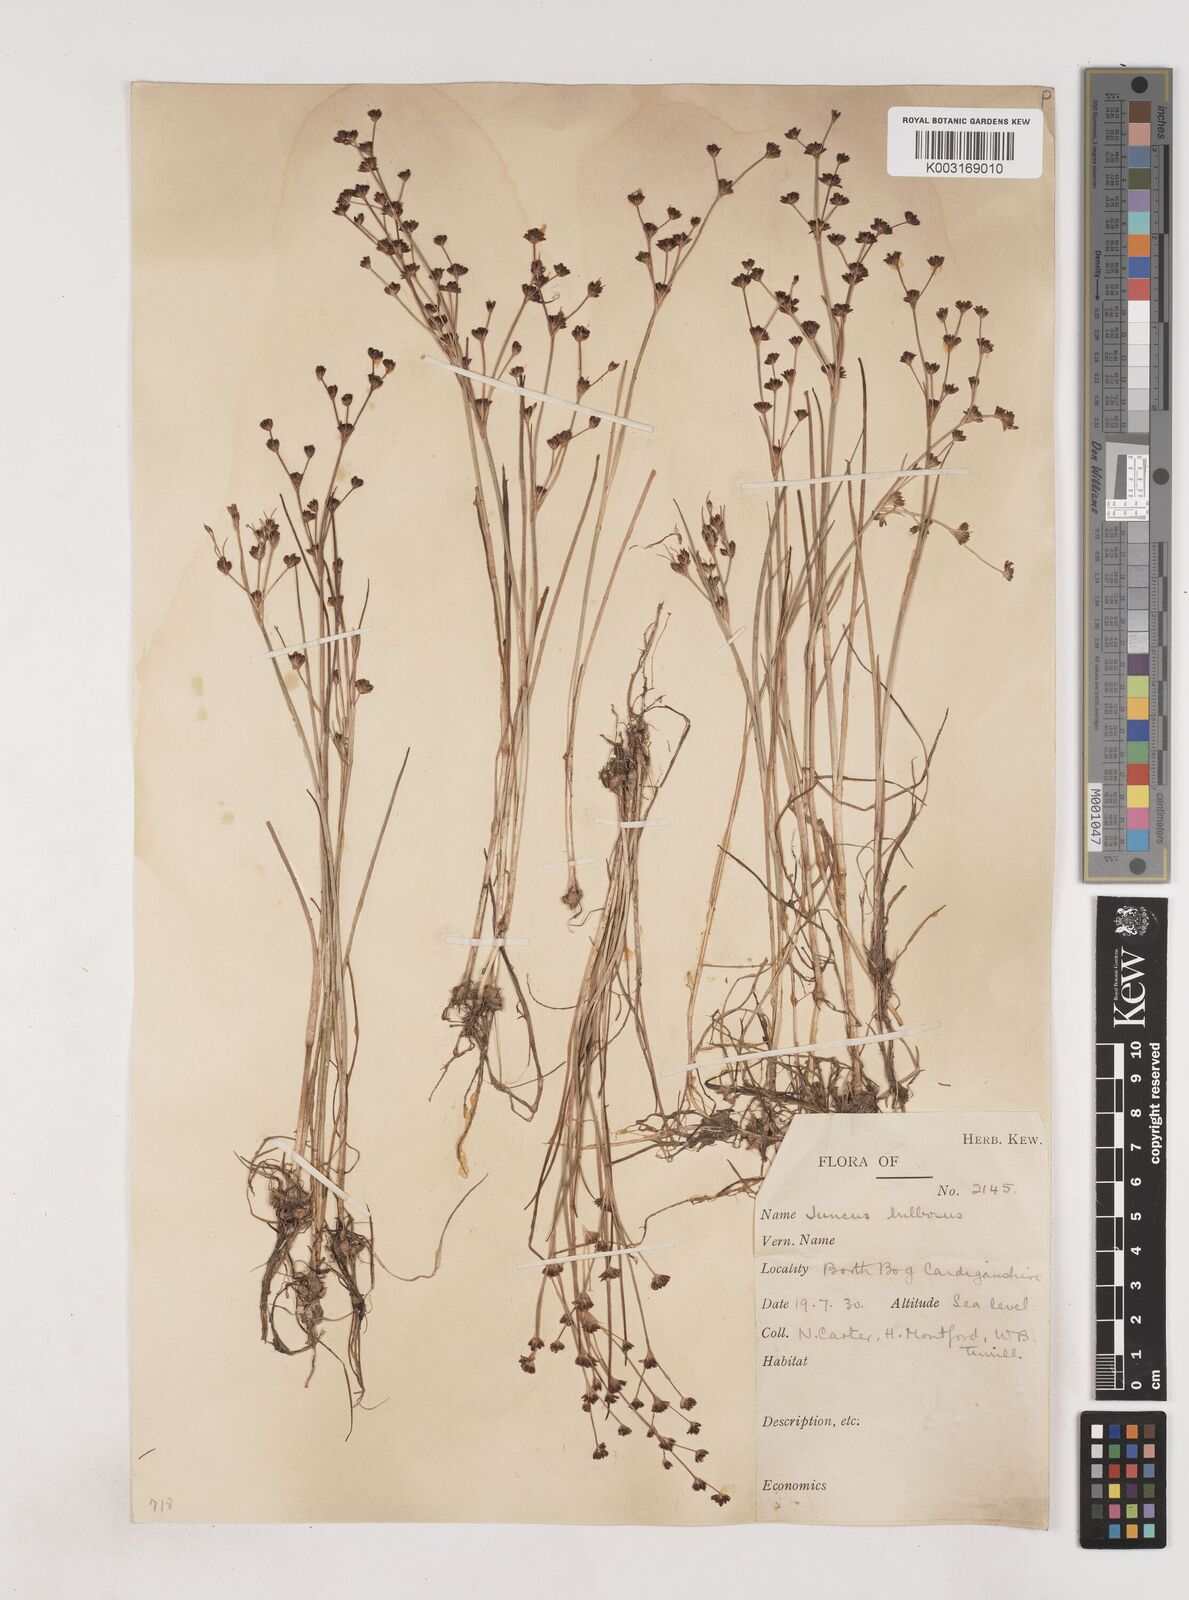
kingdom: Plantae
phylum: Tracheophyta
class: Liliopsida
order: Poales
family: Juncaceae
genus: Juncus
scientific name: Juncus bulbosus
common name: Bulbous rush
